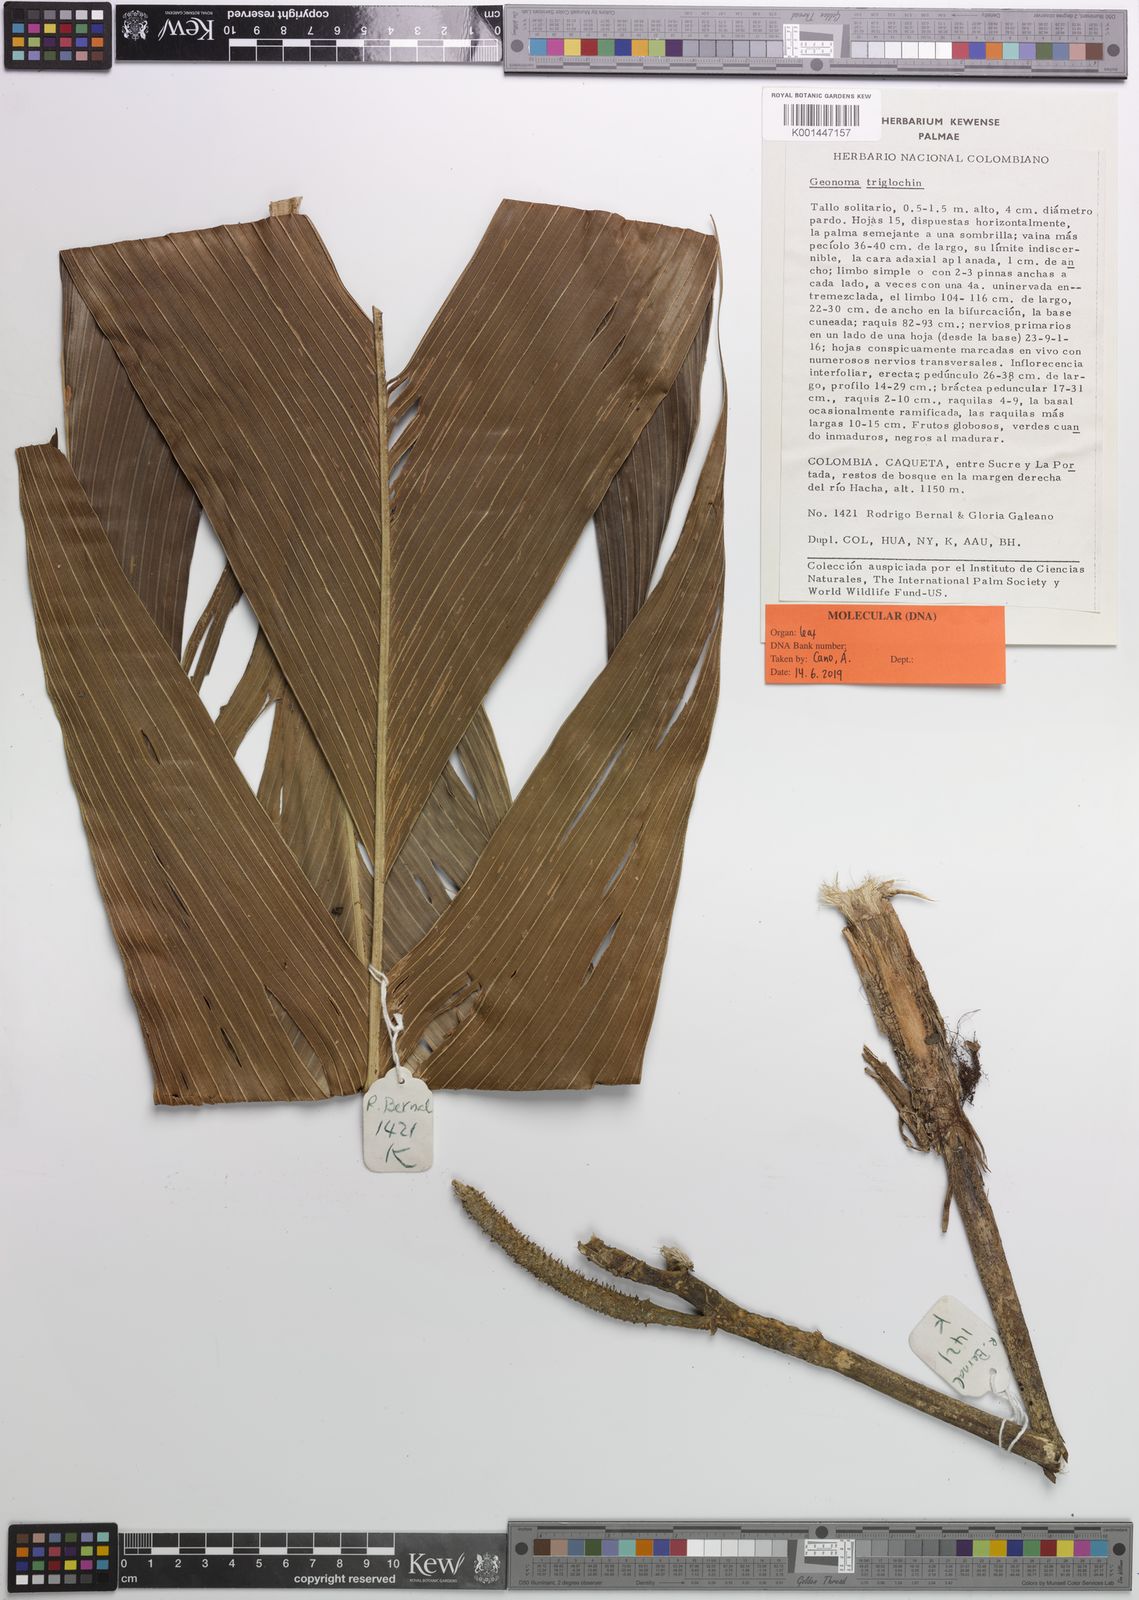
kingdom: Plantae
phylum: Tracheophyta
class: Liliopsida
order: Arecales
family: Arecaceae
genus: Geonoma
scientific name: Geonoma triglochin
